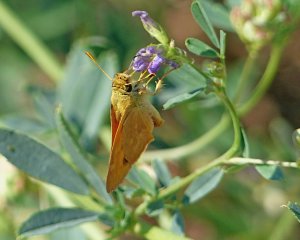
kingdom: Animalia
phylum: Arthropoda
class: Insecta
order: Lepidoptera
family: Hesperiidae
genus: Ochlodes
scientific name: Ochlodes sylvanoides
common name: Woodland Skipper
